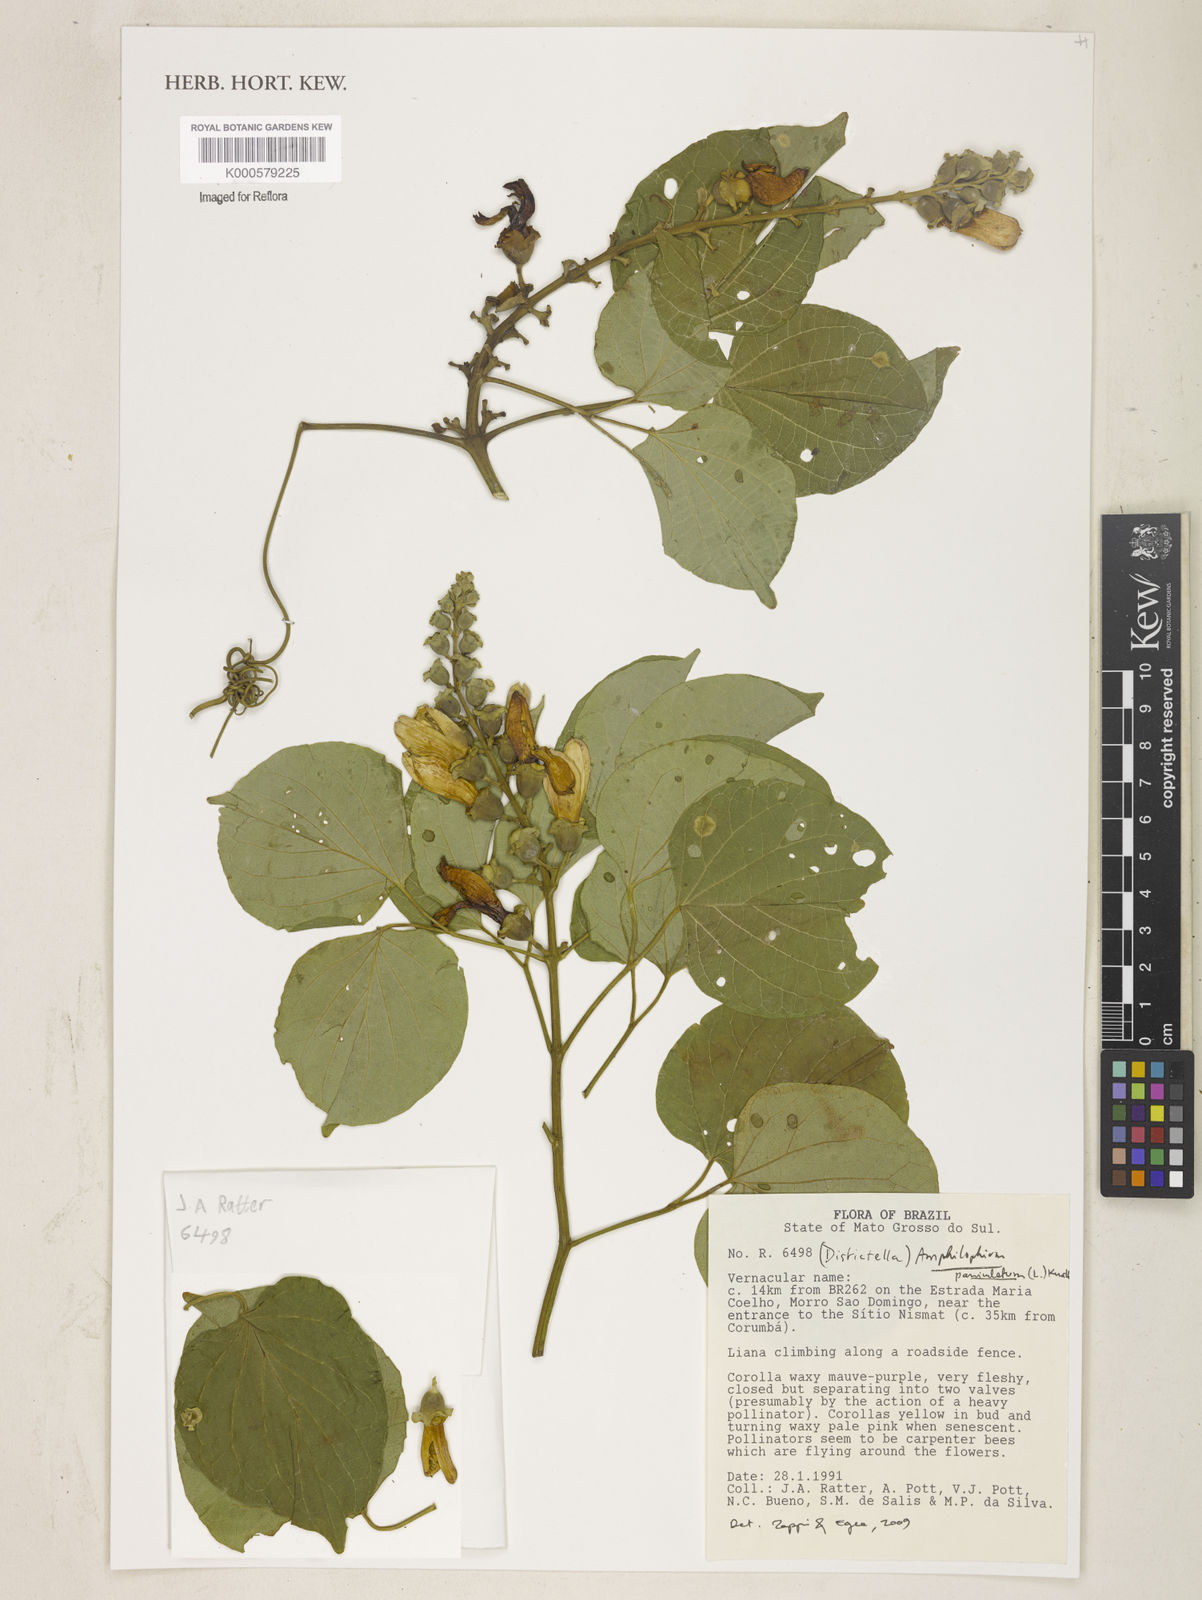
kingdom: Plantae
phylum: Tracheophyta
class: Magnoliopsida
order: Lamiales
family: Bignoniaceae
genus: Amphilophium
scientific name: Amphilophium paniculatum
